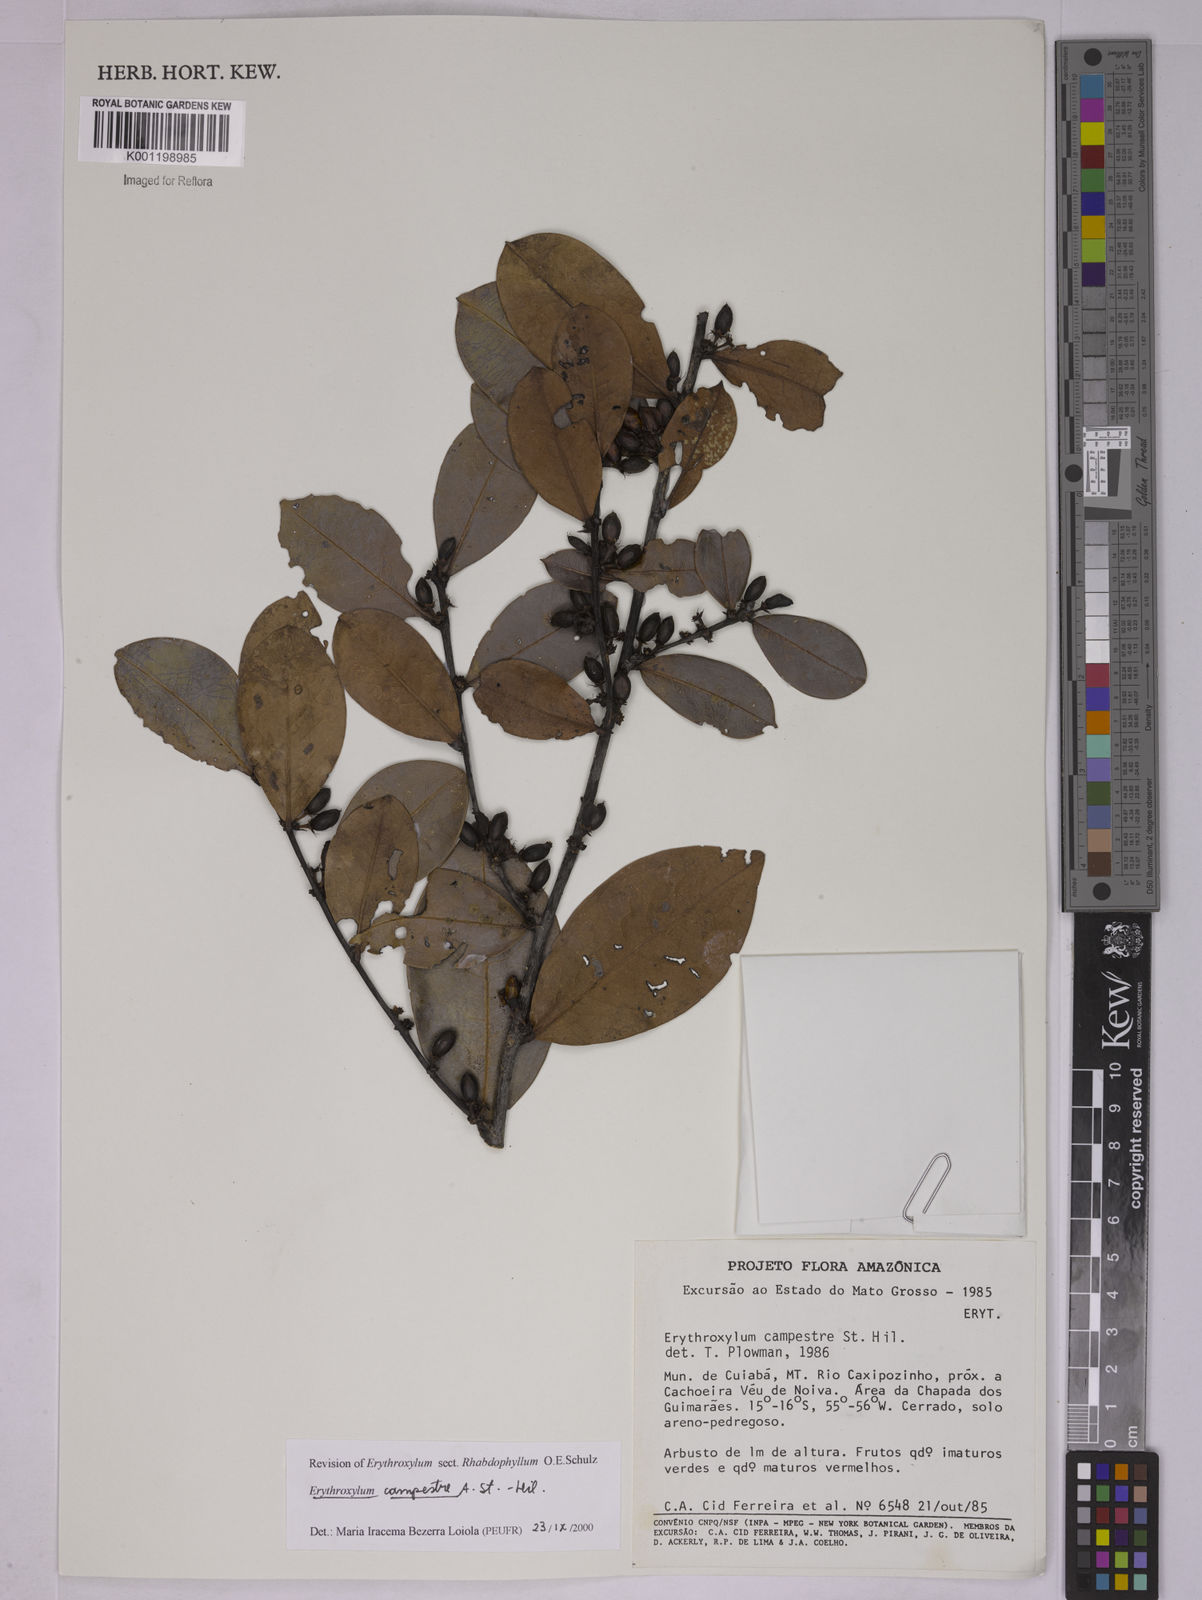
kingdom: Plantae
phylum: Tracheophyta
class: Magnoliopsida
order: Malpighiales
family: Erythroxylaceae
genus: Erythroxylum
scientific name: Erythroxylum campestre
